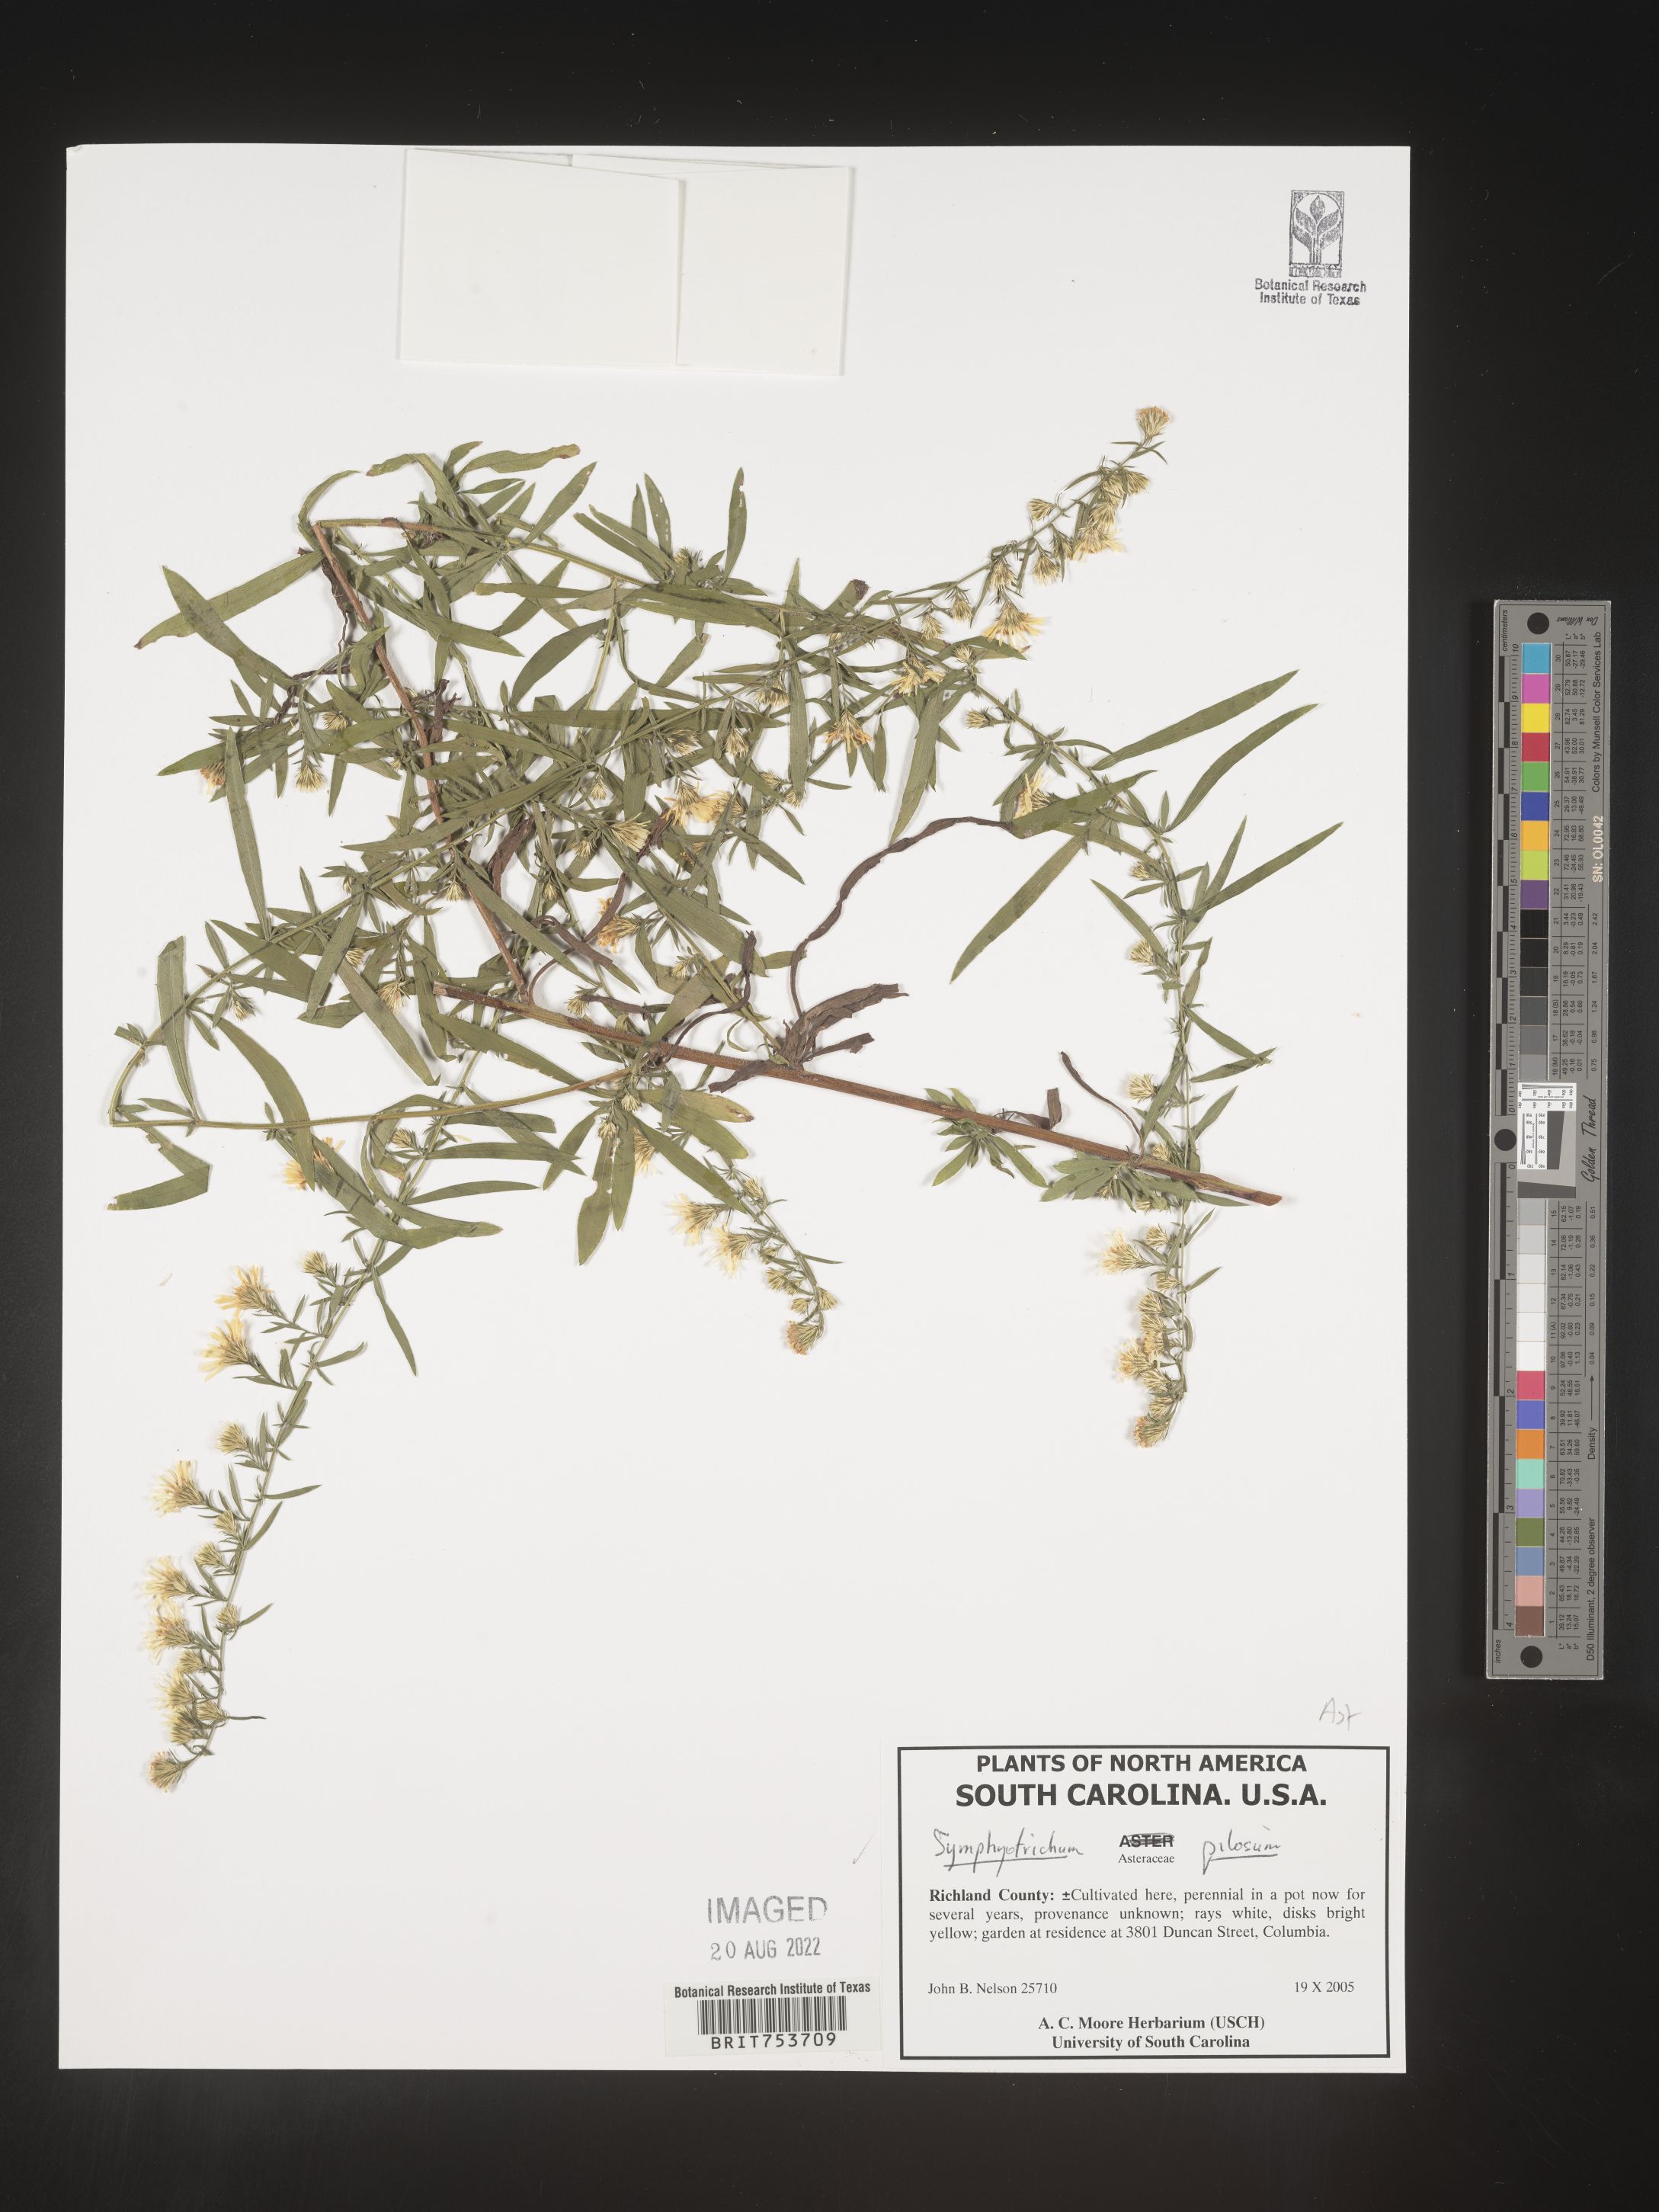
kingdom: Plantae
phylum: Tracheophyta
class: Magnoliopsida
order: Asterales
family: Asteraceae
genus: Symphyotrichum
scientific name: Symphyotrichum pilosum
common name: Awl aster
